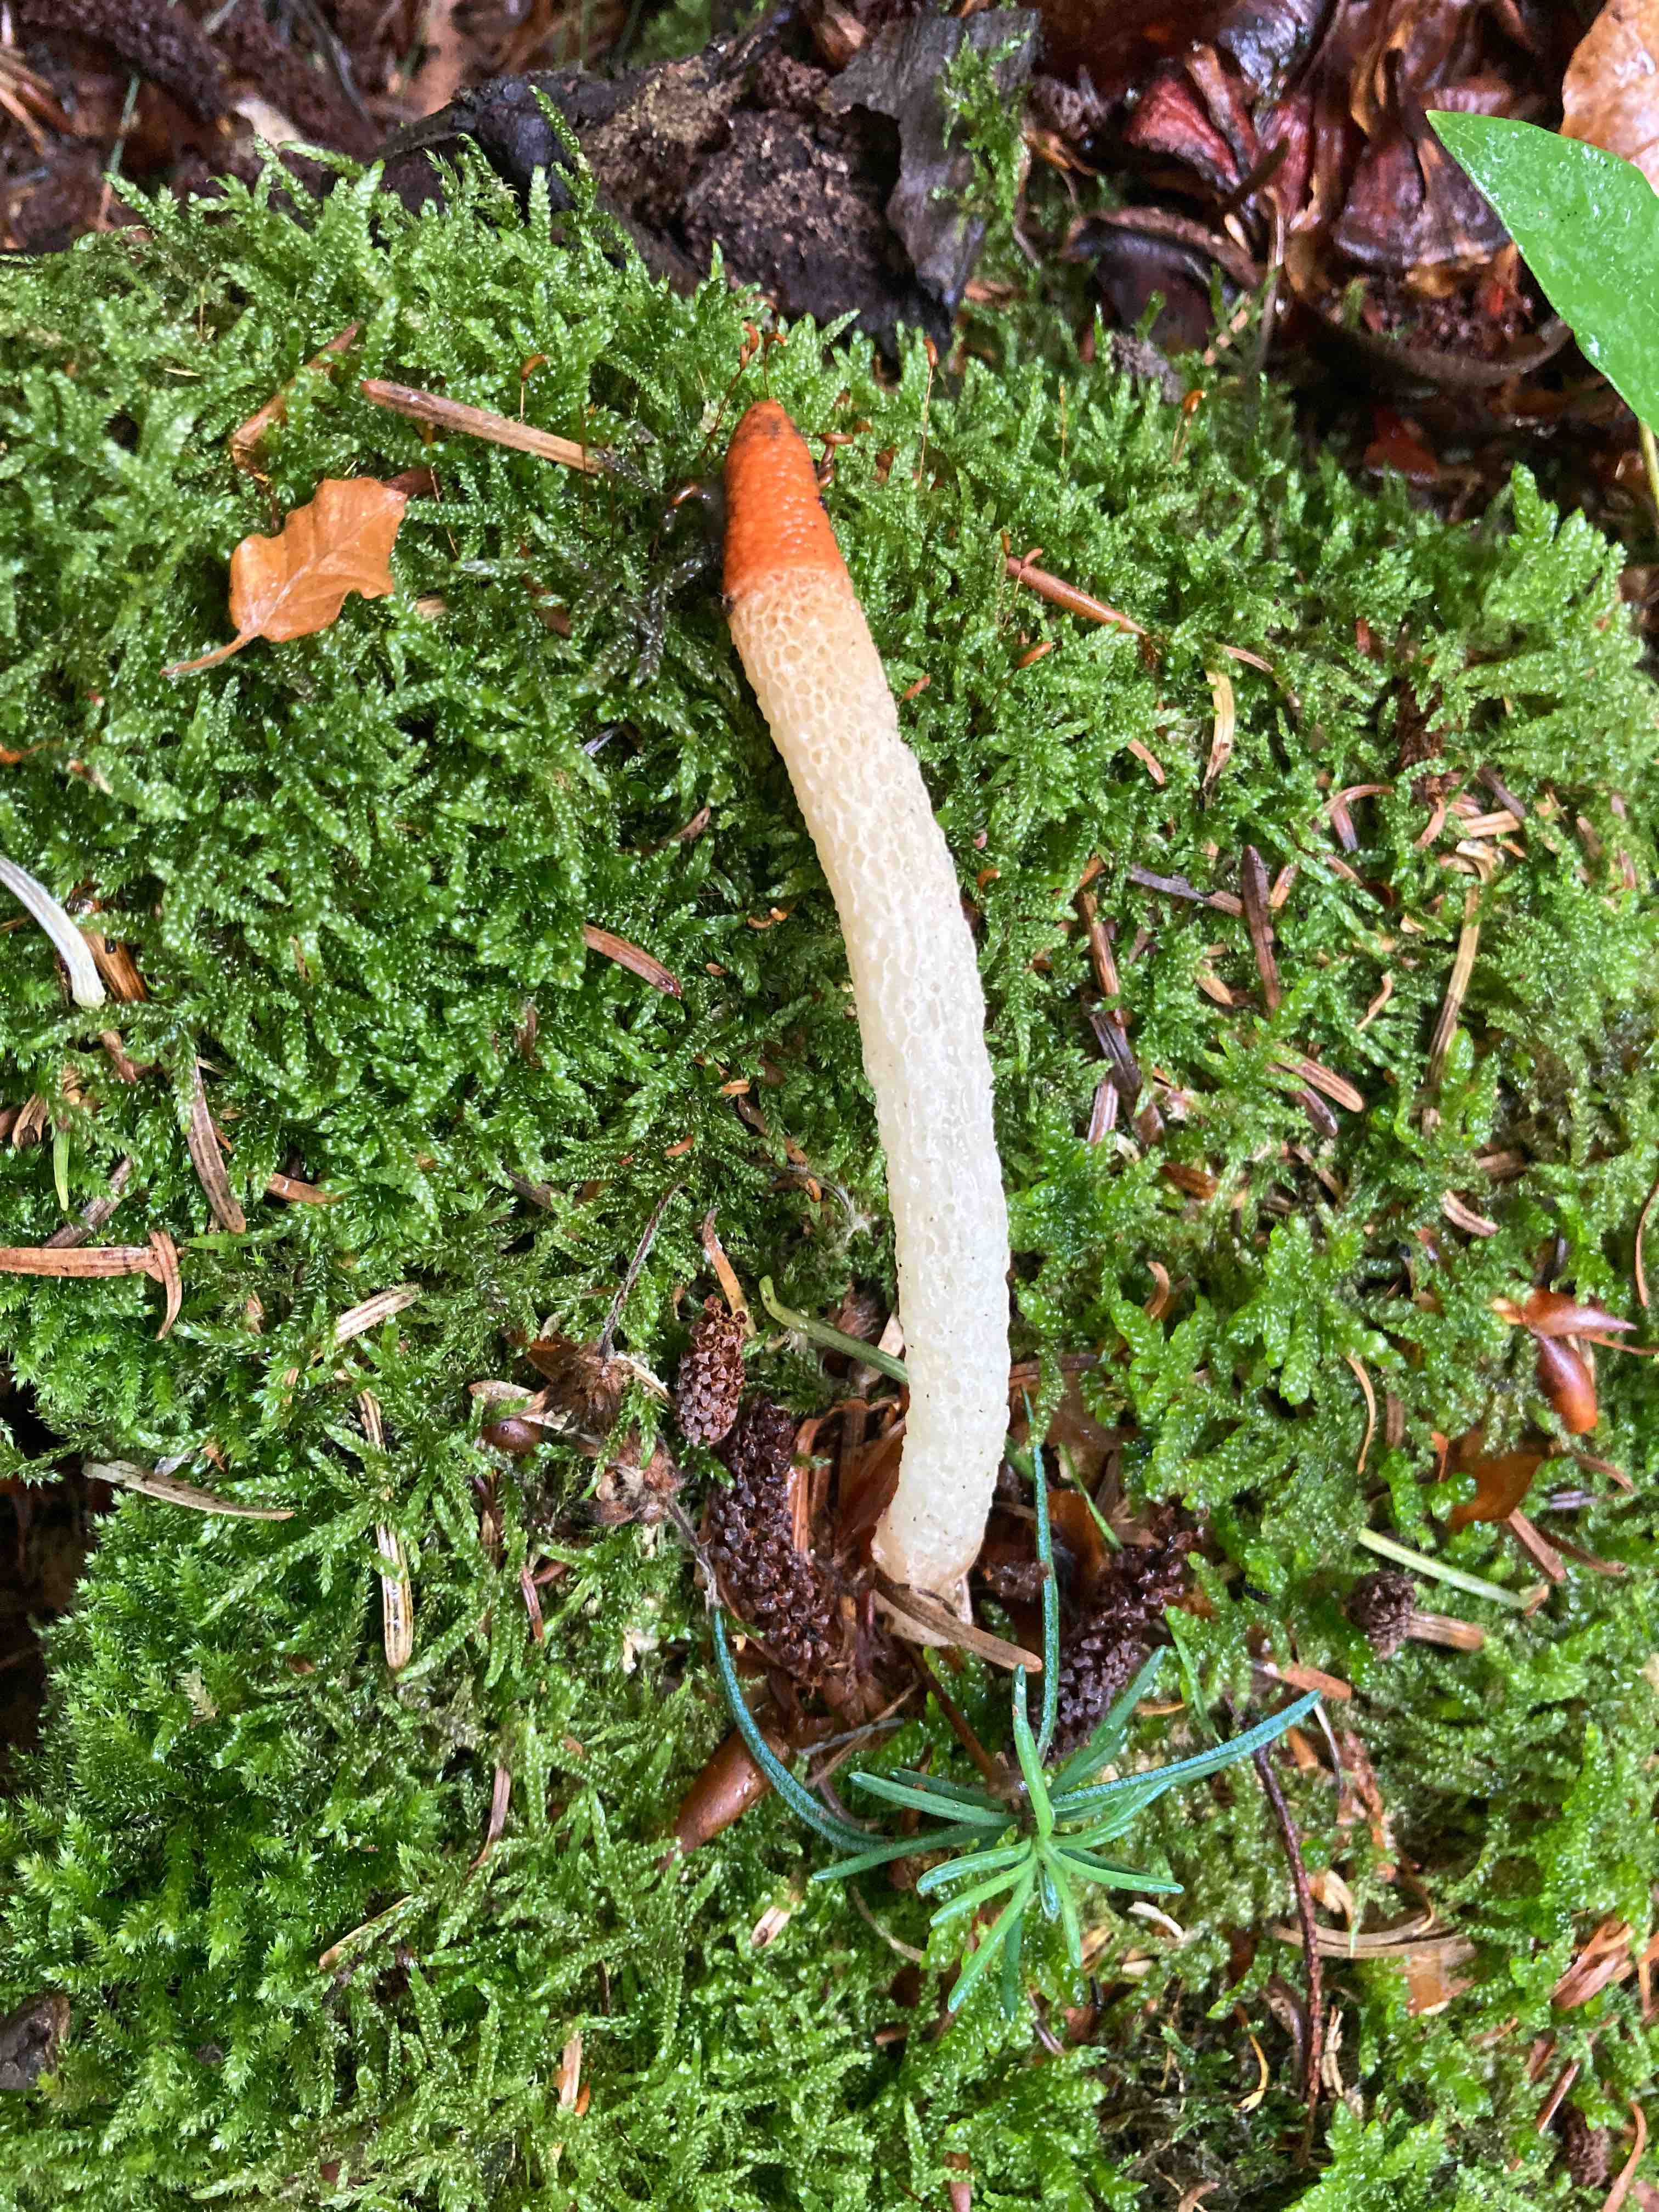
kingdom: Fungi
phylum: Basidiomycota
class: Agaricomycetes
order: Phallales
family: Phallaceae
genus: Mutinus
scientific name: Mutinus caninus
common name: hunde-stinksvamp
